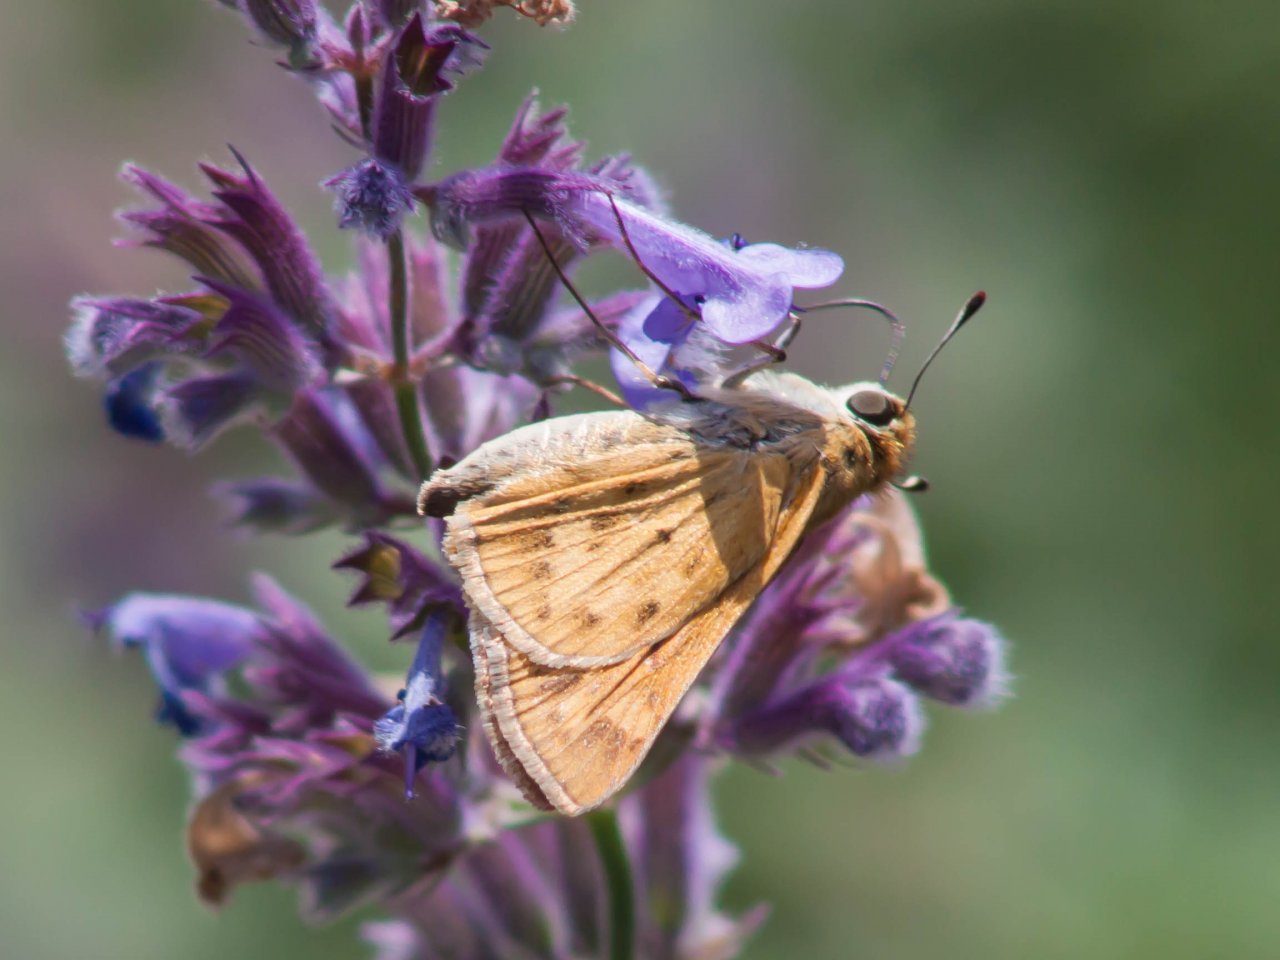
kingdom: Animalia
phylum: Arthropoda
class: Insecta
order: Lepidoptera
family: Hesperiidae
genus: Hylephila
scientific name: Hylephila phyleus
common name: Fiery Skipper
